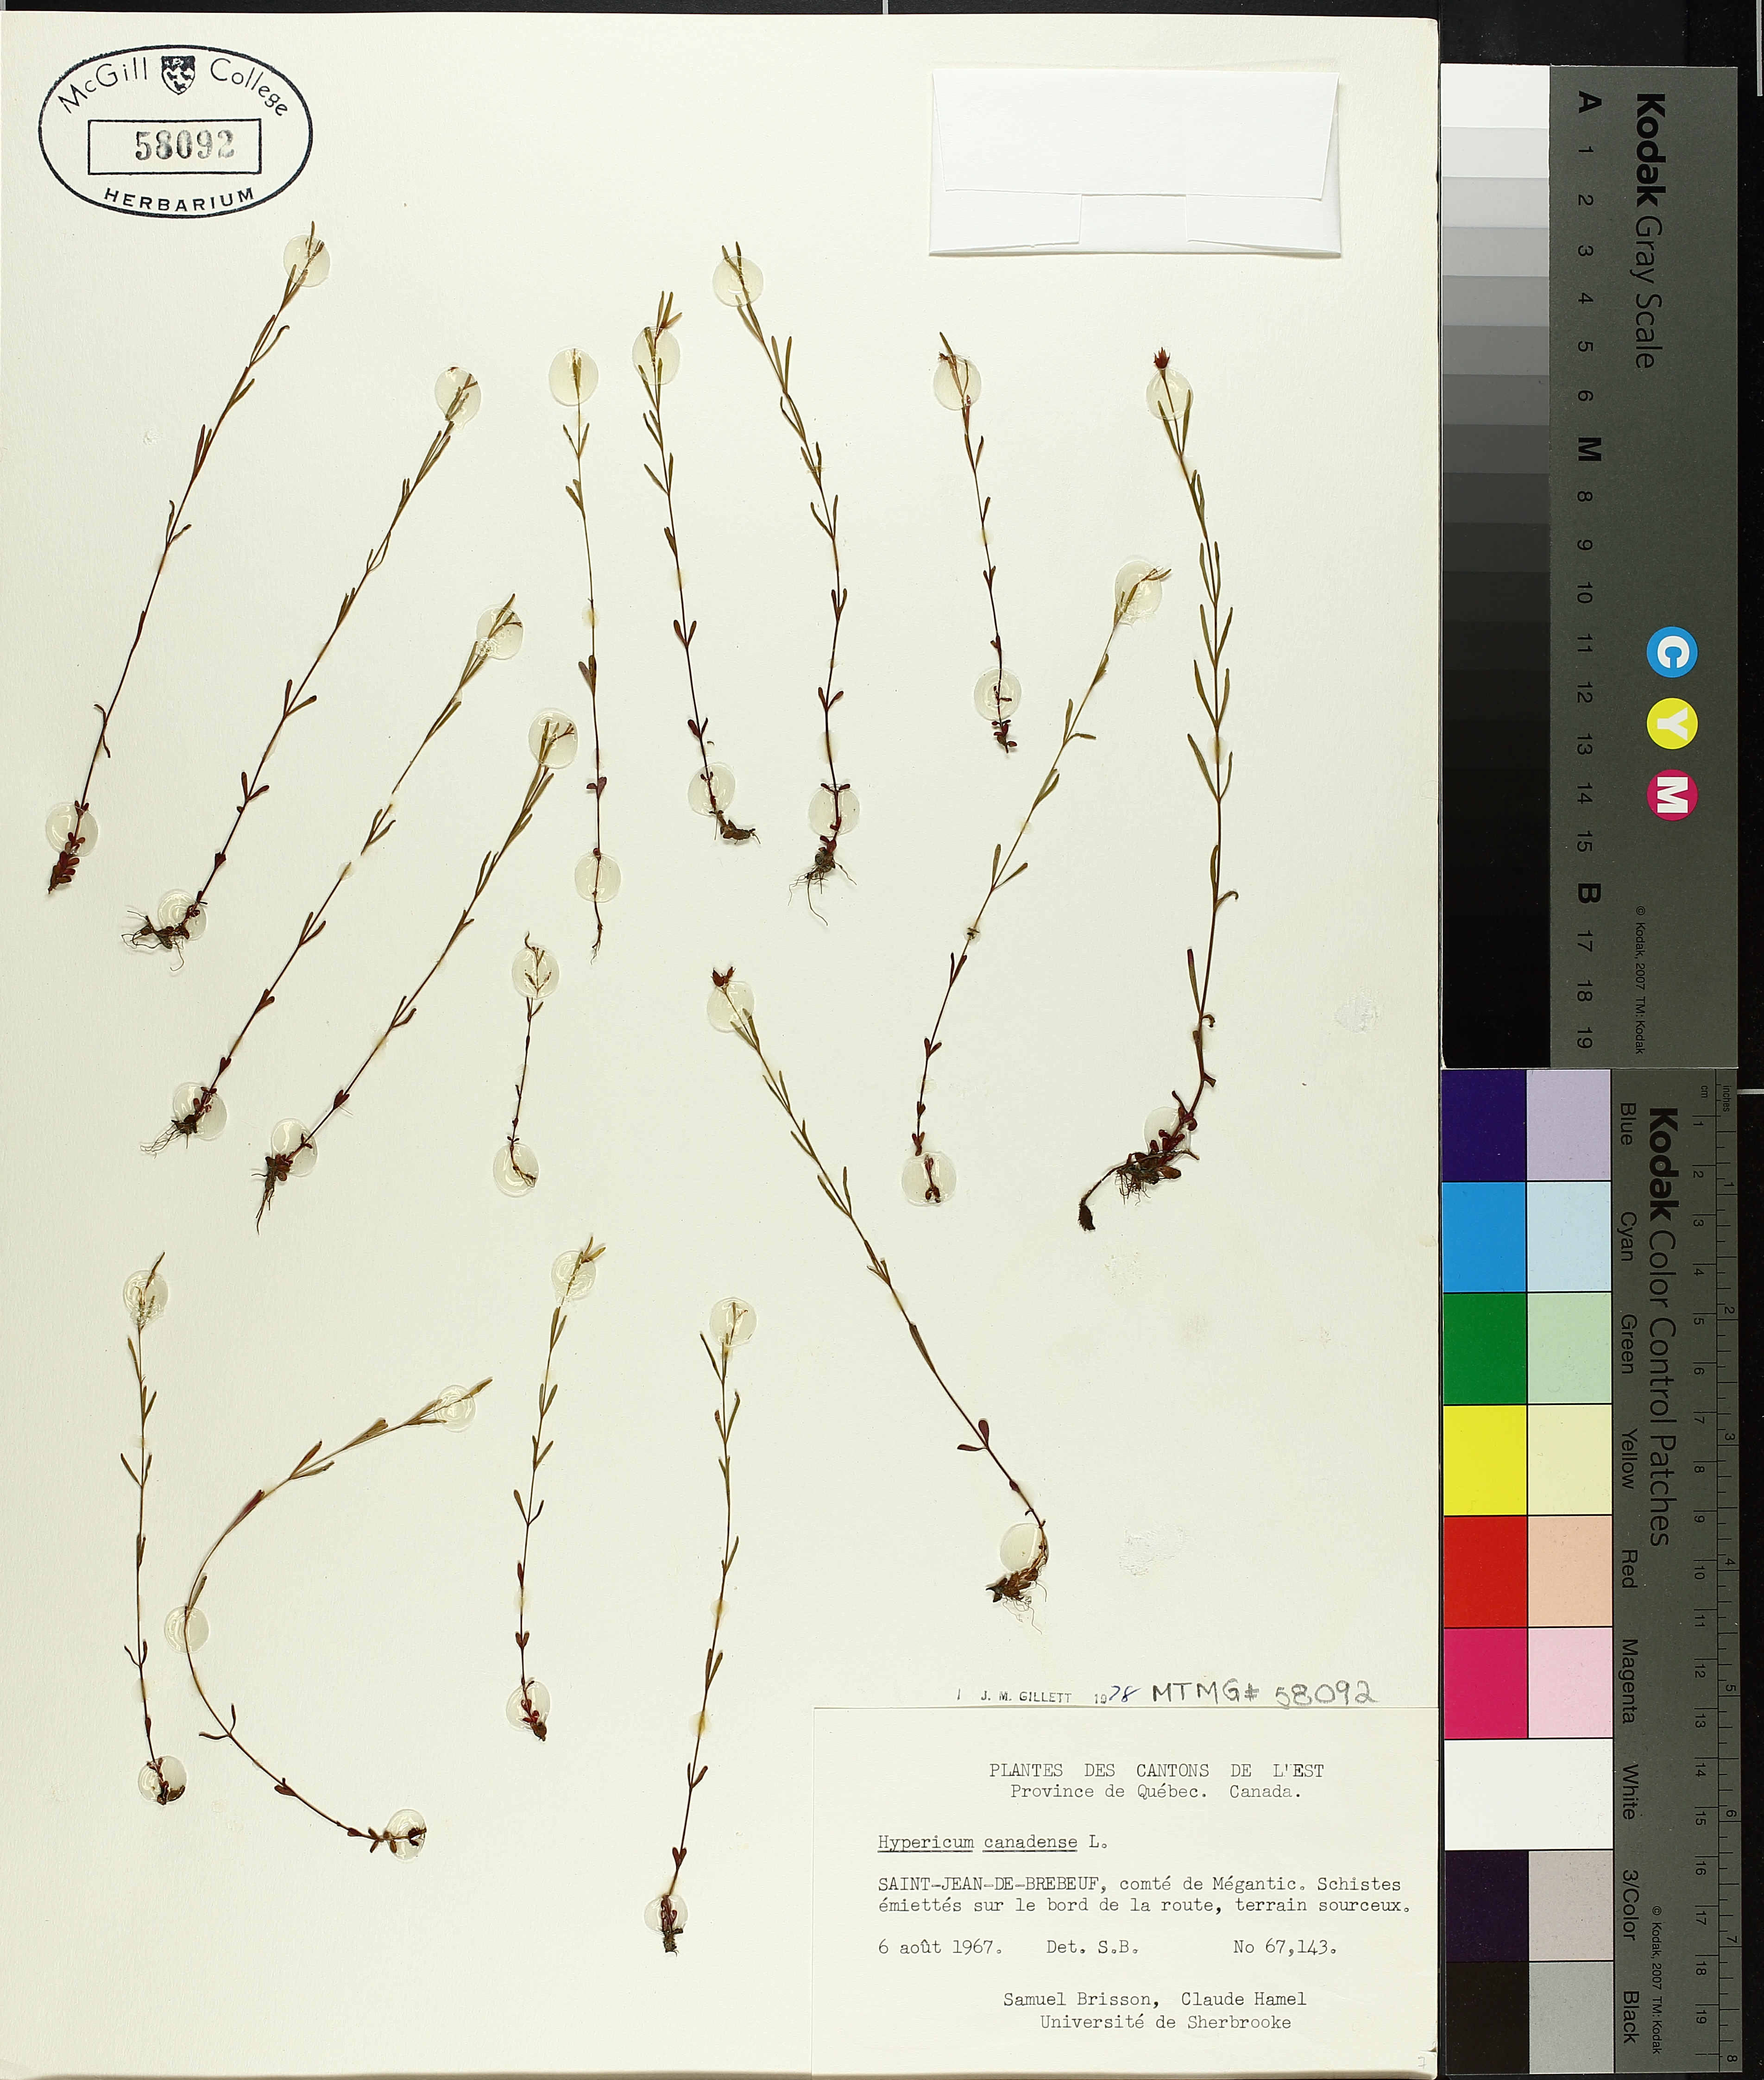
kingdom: Plantae
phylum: Tracheophyta
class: Magnoliopsida
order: Malpighiales
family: Hypericaceae
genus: Hypericum
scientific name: Hypericum canadense
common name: Irish st. john's-wort
